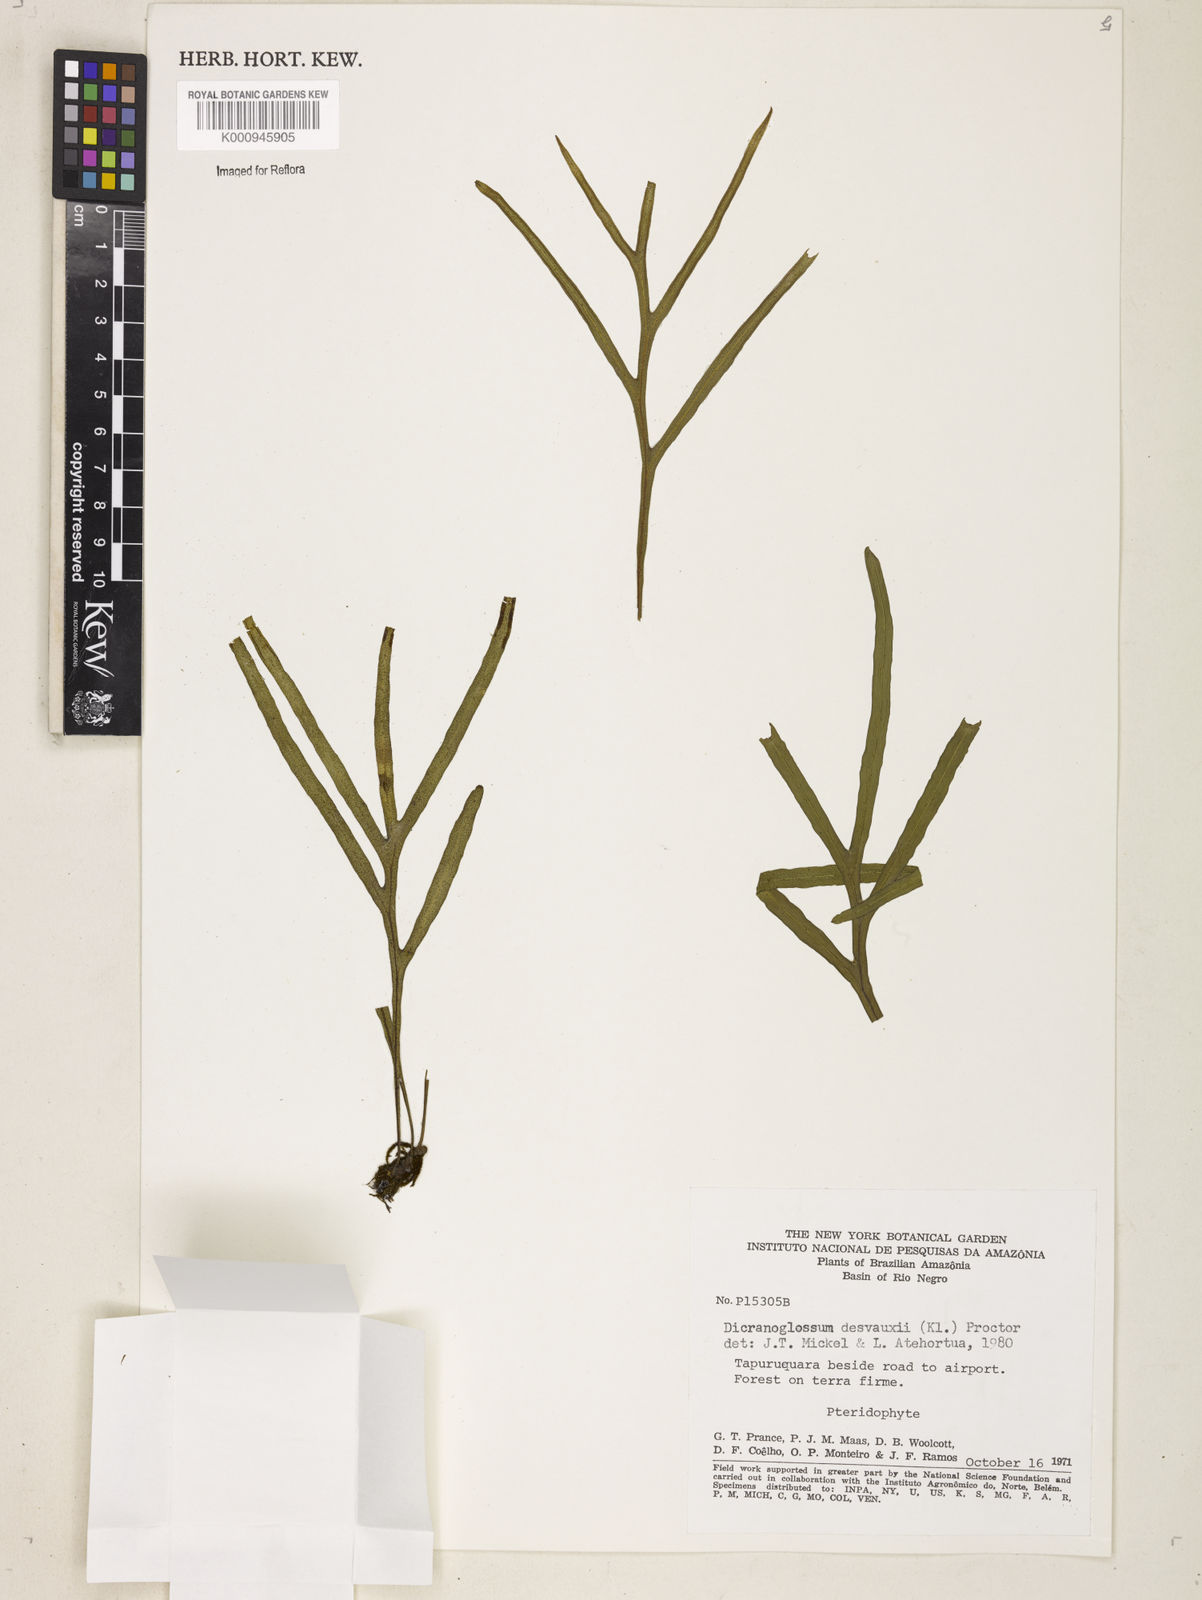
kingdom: Plantae
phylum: Tracheophyta
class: Polypodiopsida
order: Polypodiales
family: Polypodiaceae
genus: Pleopeltis
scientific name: Pleopeltis desvauxii
